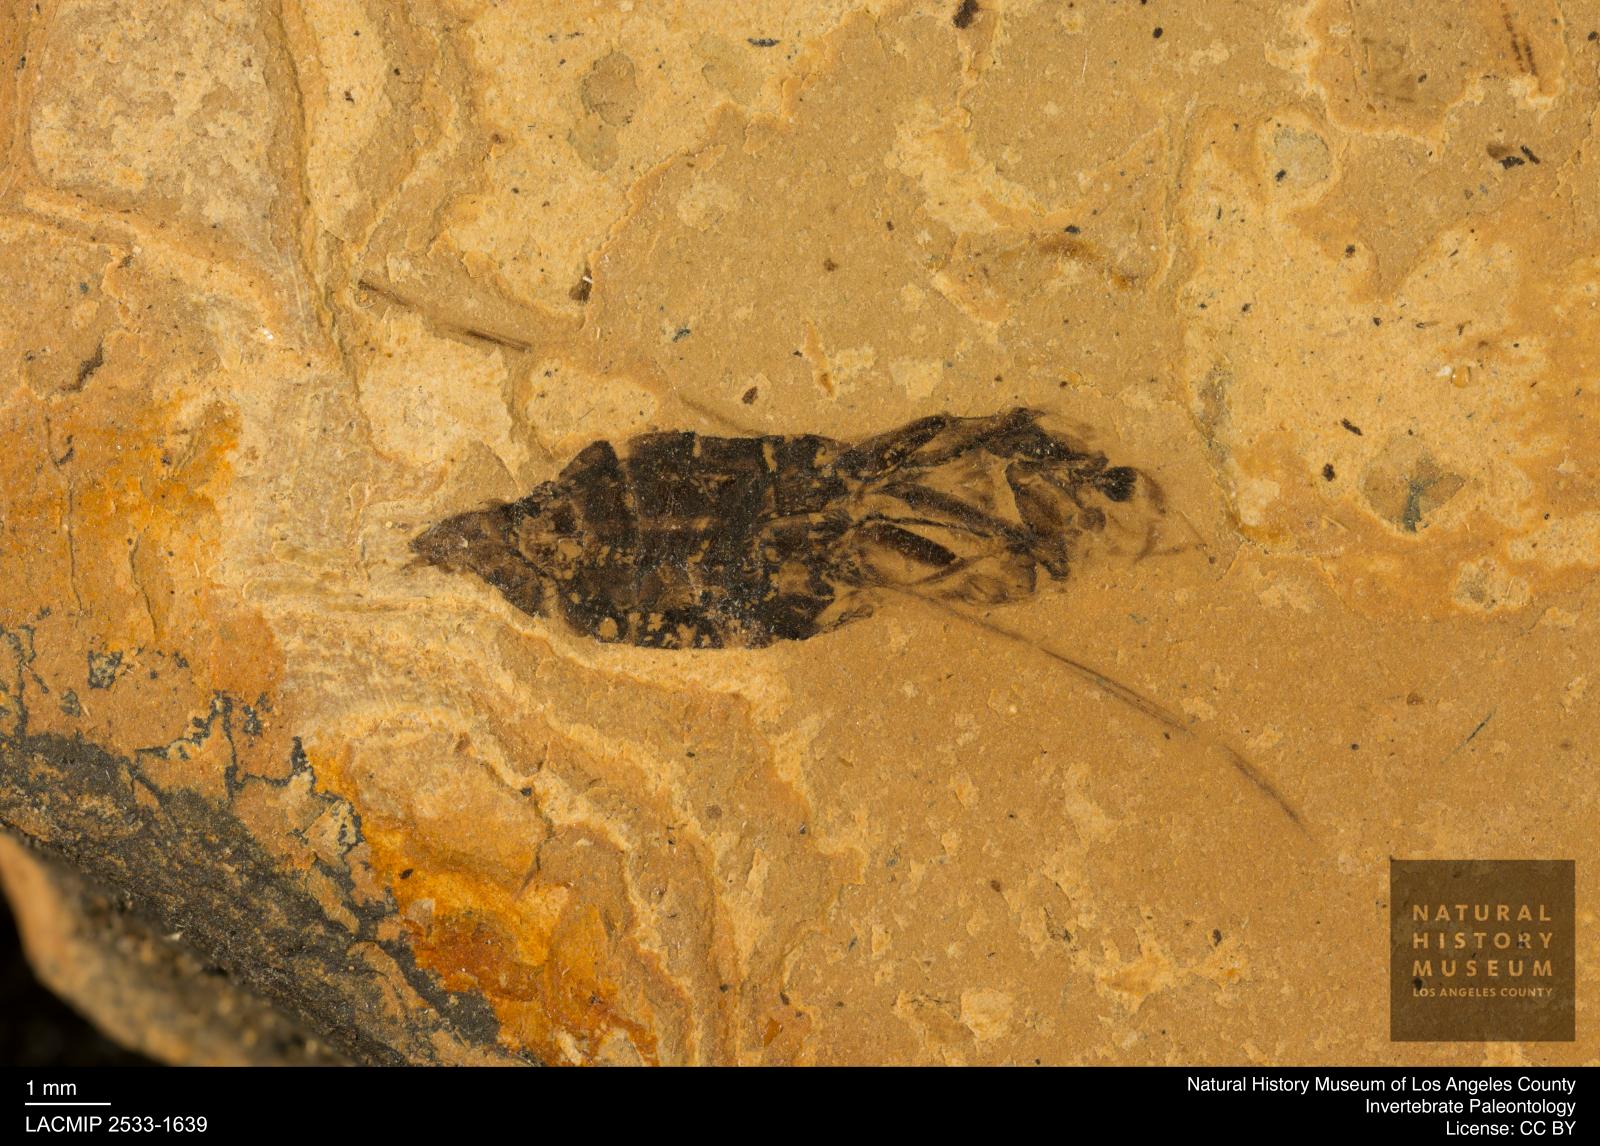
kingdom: Animalia
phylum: Arthropoda
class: Insecta
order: Hemiptera
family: Notonectidae
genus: Notonecta
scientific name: Notonecta
